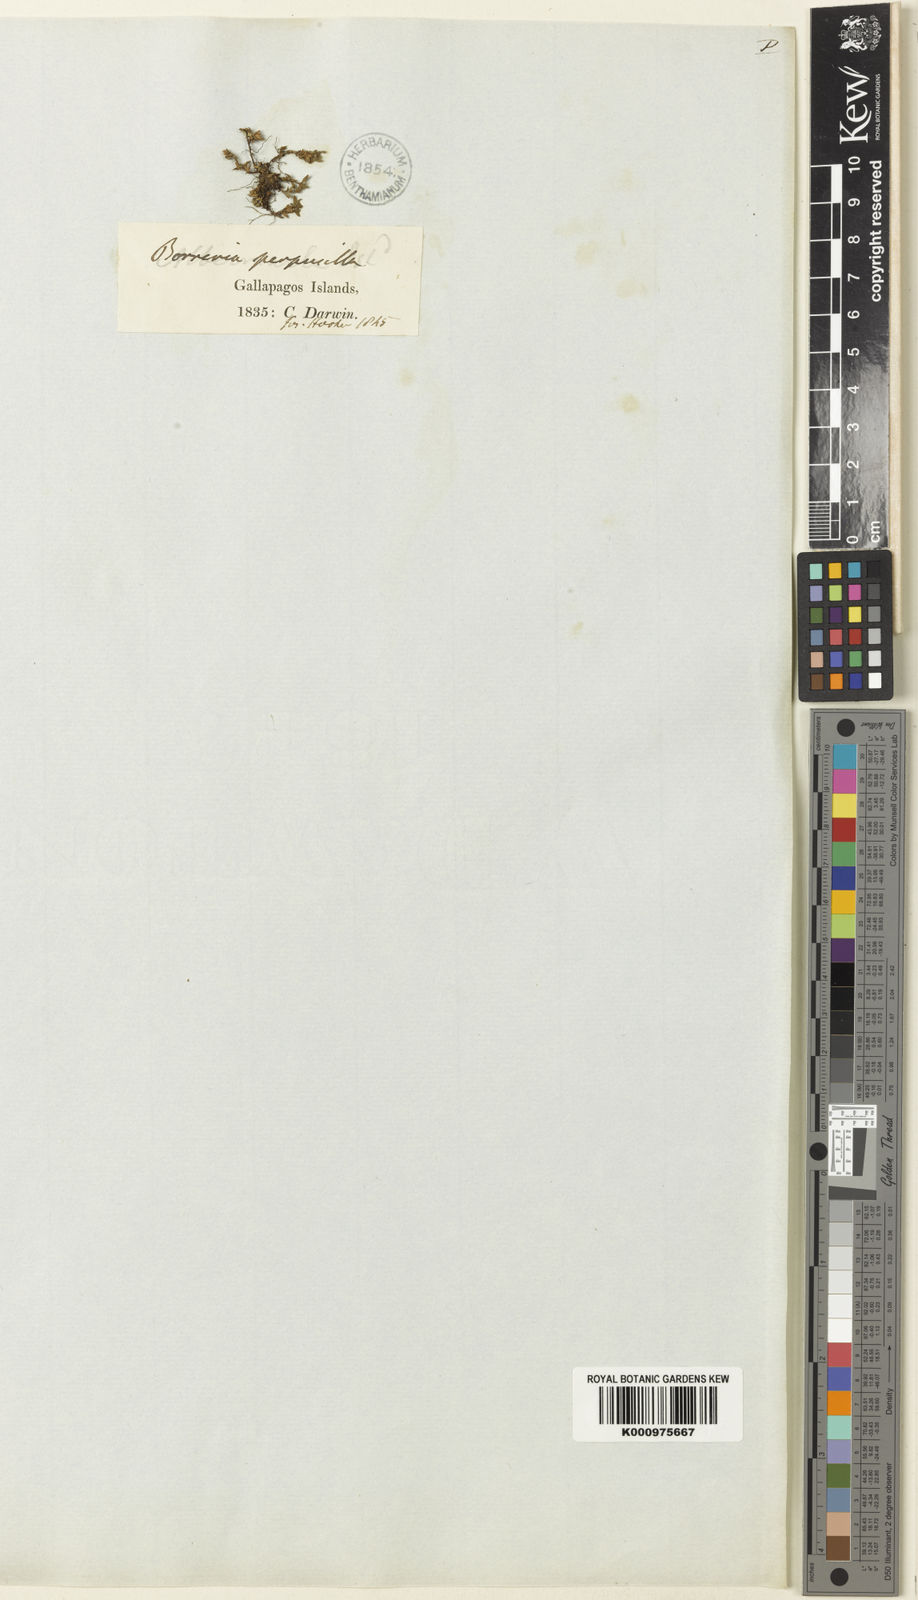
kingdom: Plantae
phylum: Tracheophyta
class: Magnoliopsida
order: Gentianales
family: Rubiaceae
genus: Spermacoce
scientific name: Spermacoce perpusilla
